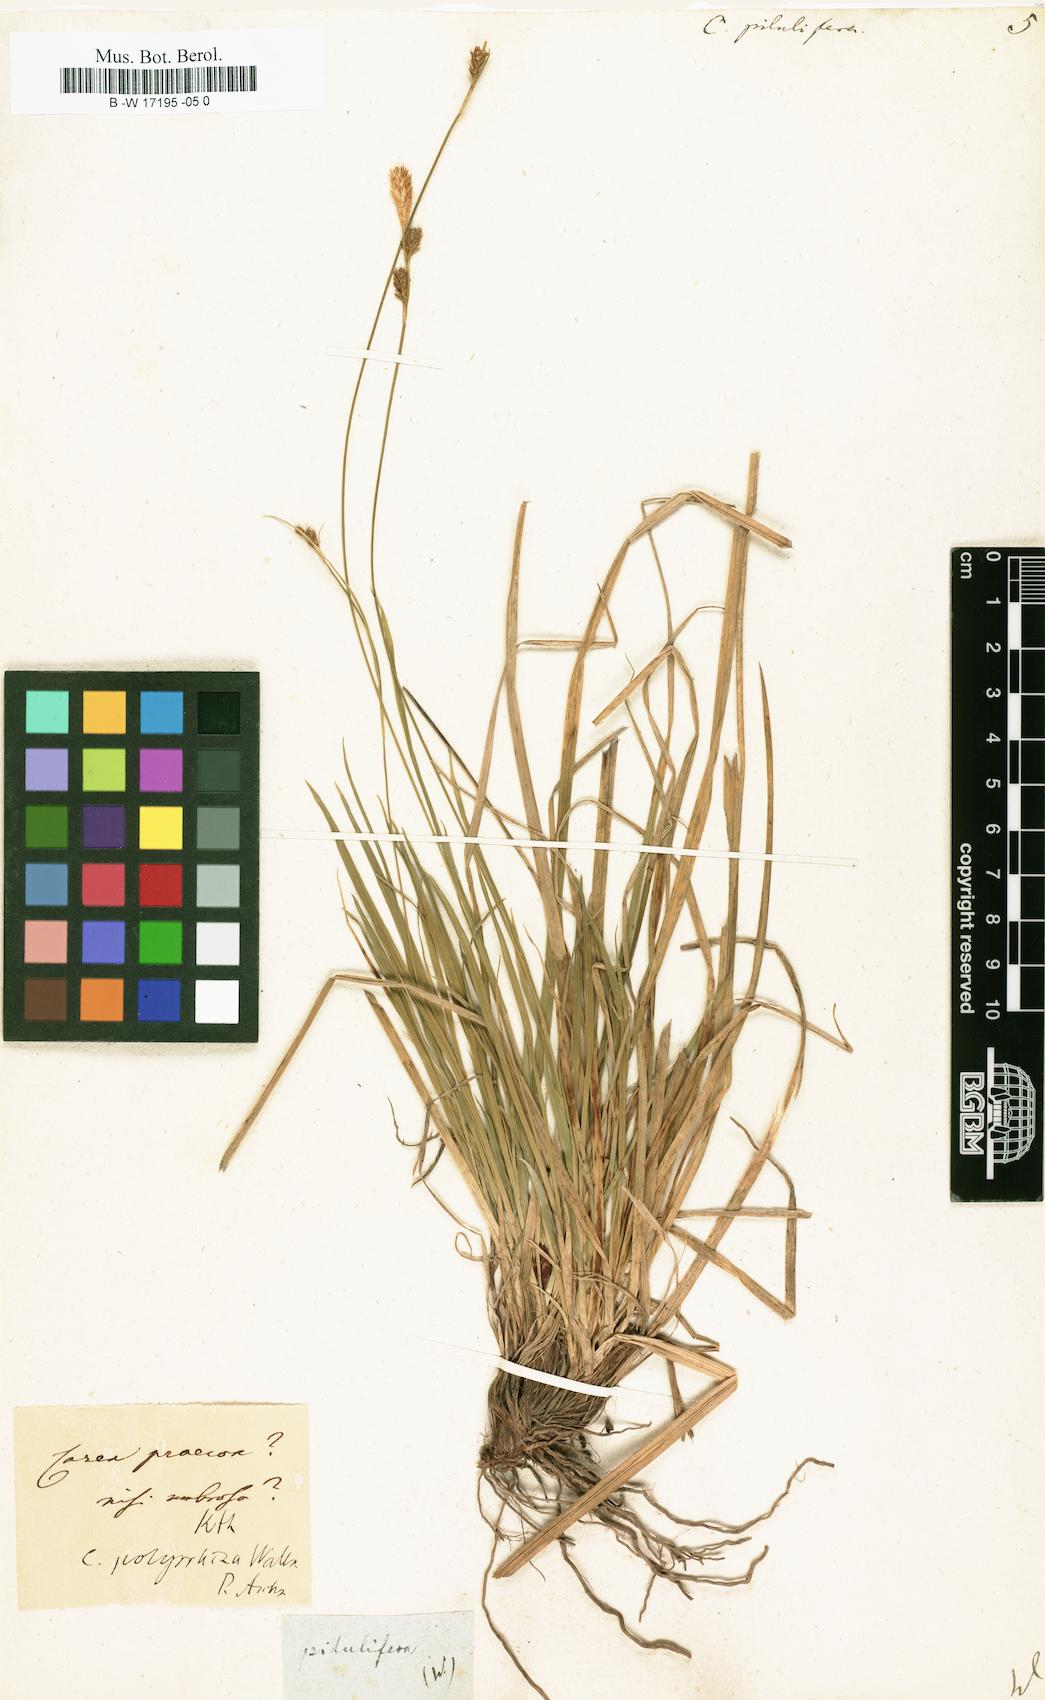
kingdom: Plantae
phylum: Tracheophyta
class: Liliopsida
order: Poales
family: Cyperaceae
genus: Carex
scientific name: Carex pilulifera
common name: Pill sedge
